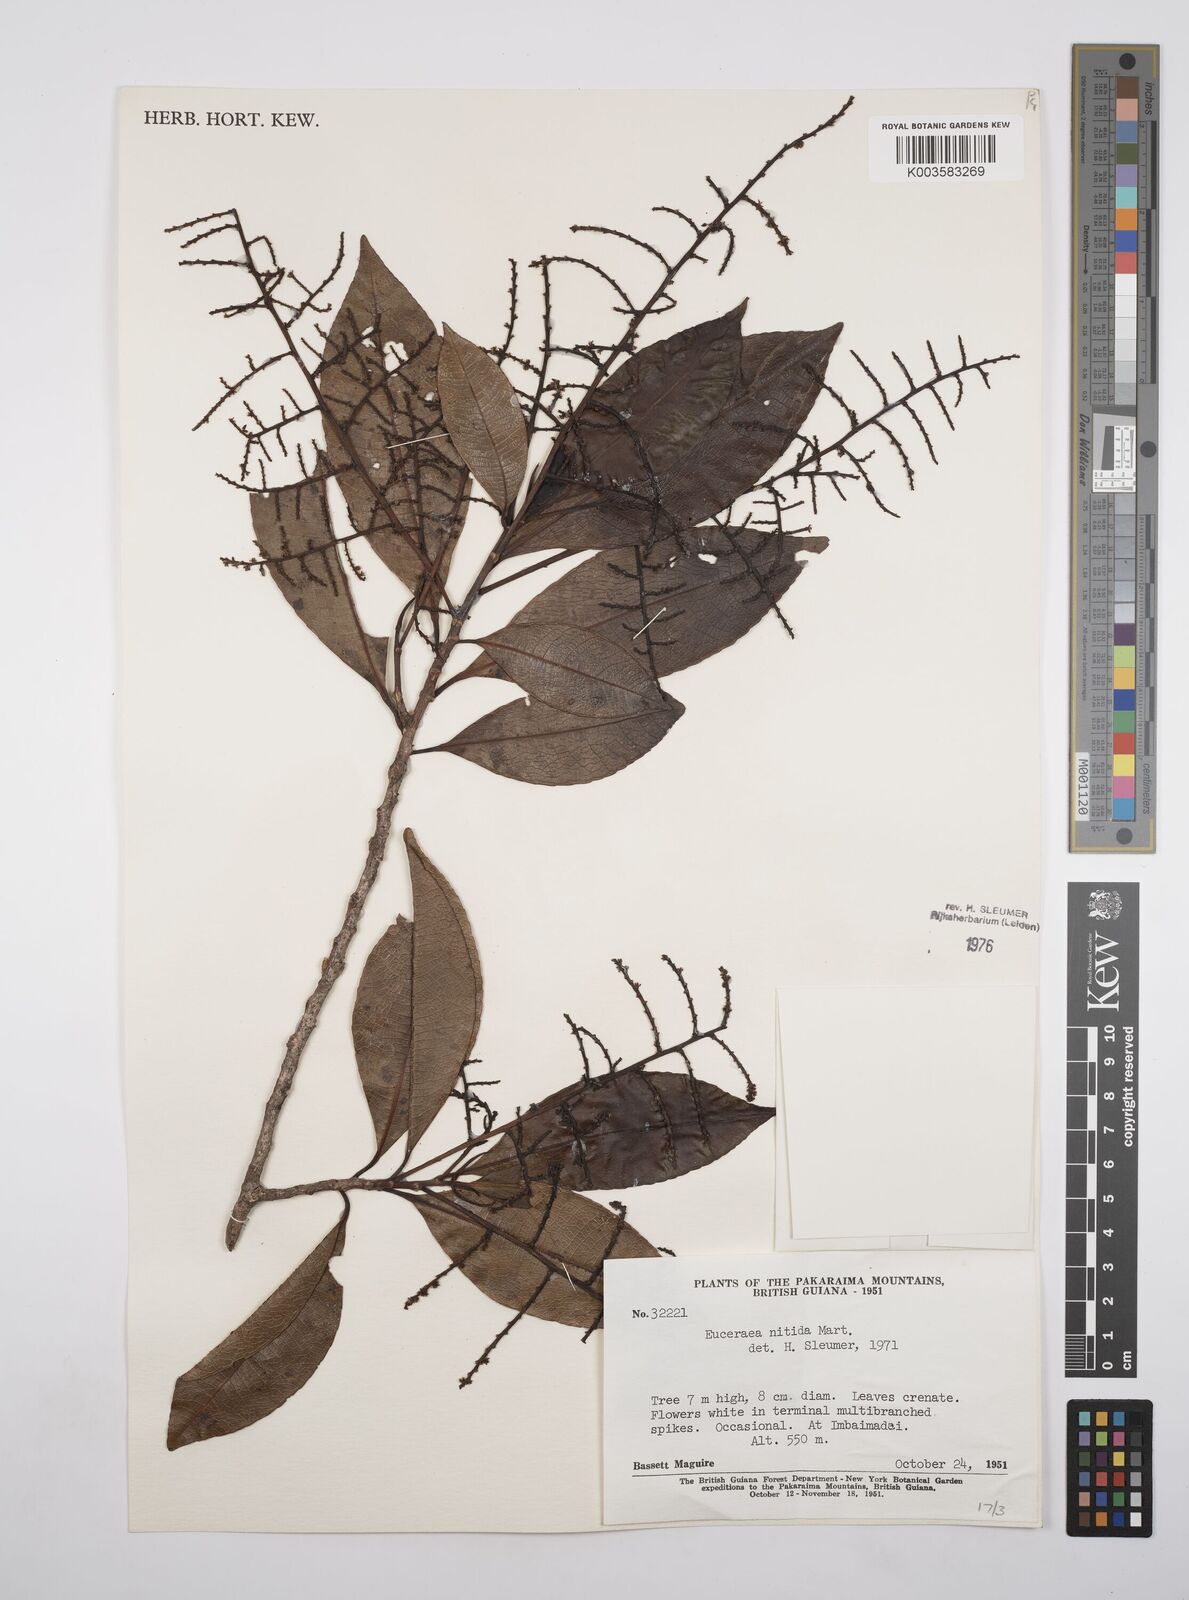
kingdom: Plantae
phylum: Tracheophyta
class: Magnoliopsida
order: Malpighiales
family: Salicaceae
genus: Casearia
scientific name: Casearia euceraea
